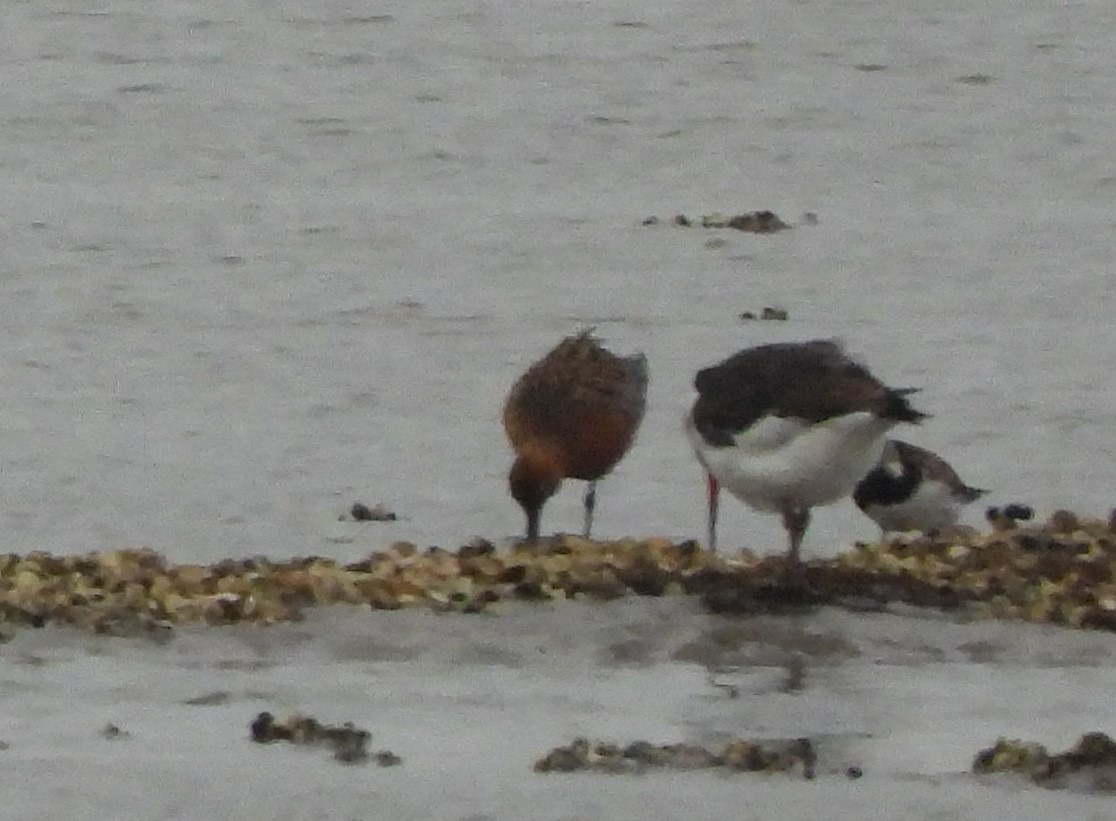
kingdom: Animalia
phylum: Chordata
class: Aves
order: Charadriiformes
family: Scolopacidae
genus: Arenaria
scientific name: Arenaria interpres
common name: Stenvender
